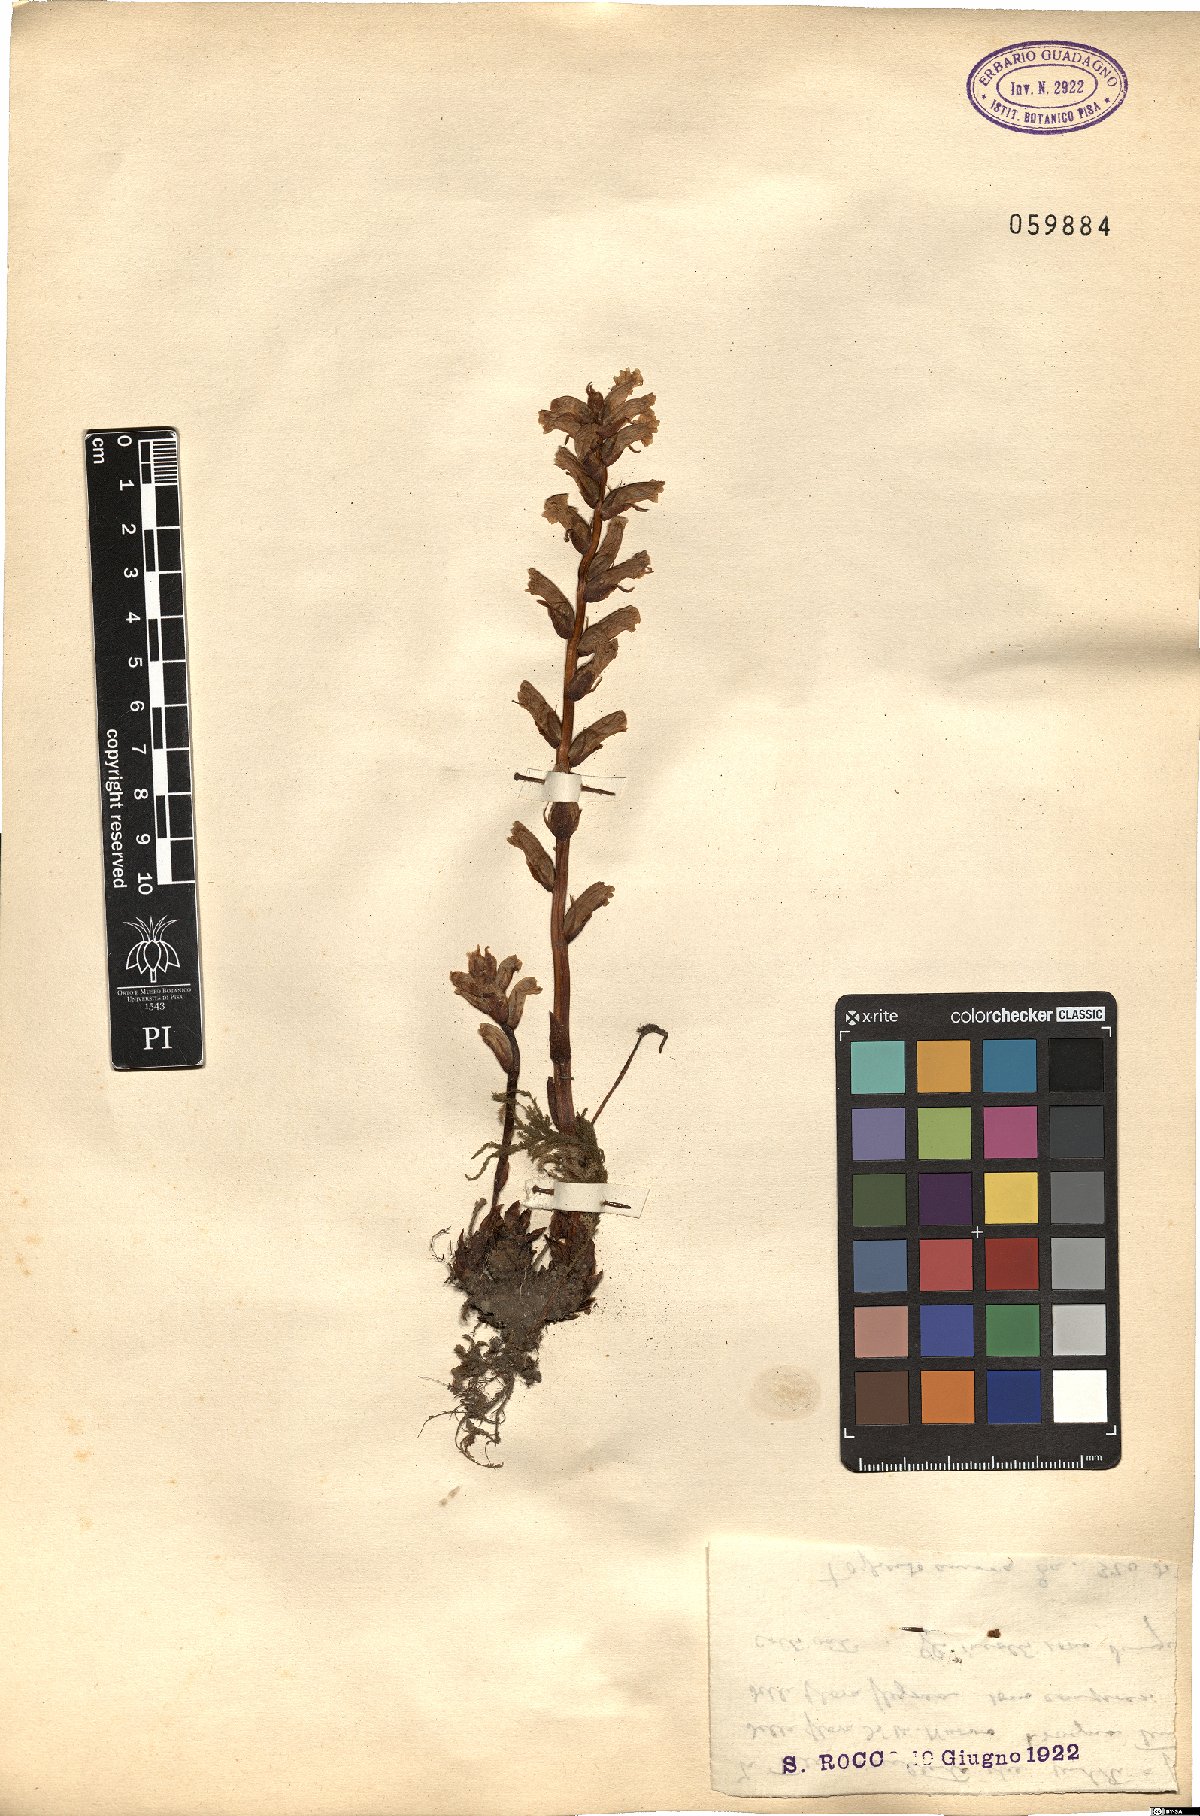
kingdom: Plantae
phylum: Tracheophyta
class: Magnoliopsida
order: Lamiales
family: Orobanchaceae
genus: Orobanche
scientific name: Orobanche hederae
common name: Ivy broomrape
